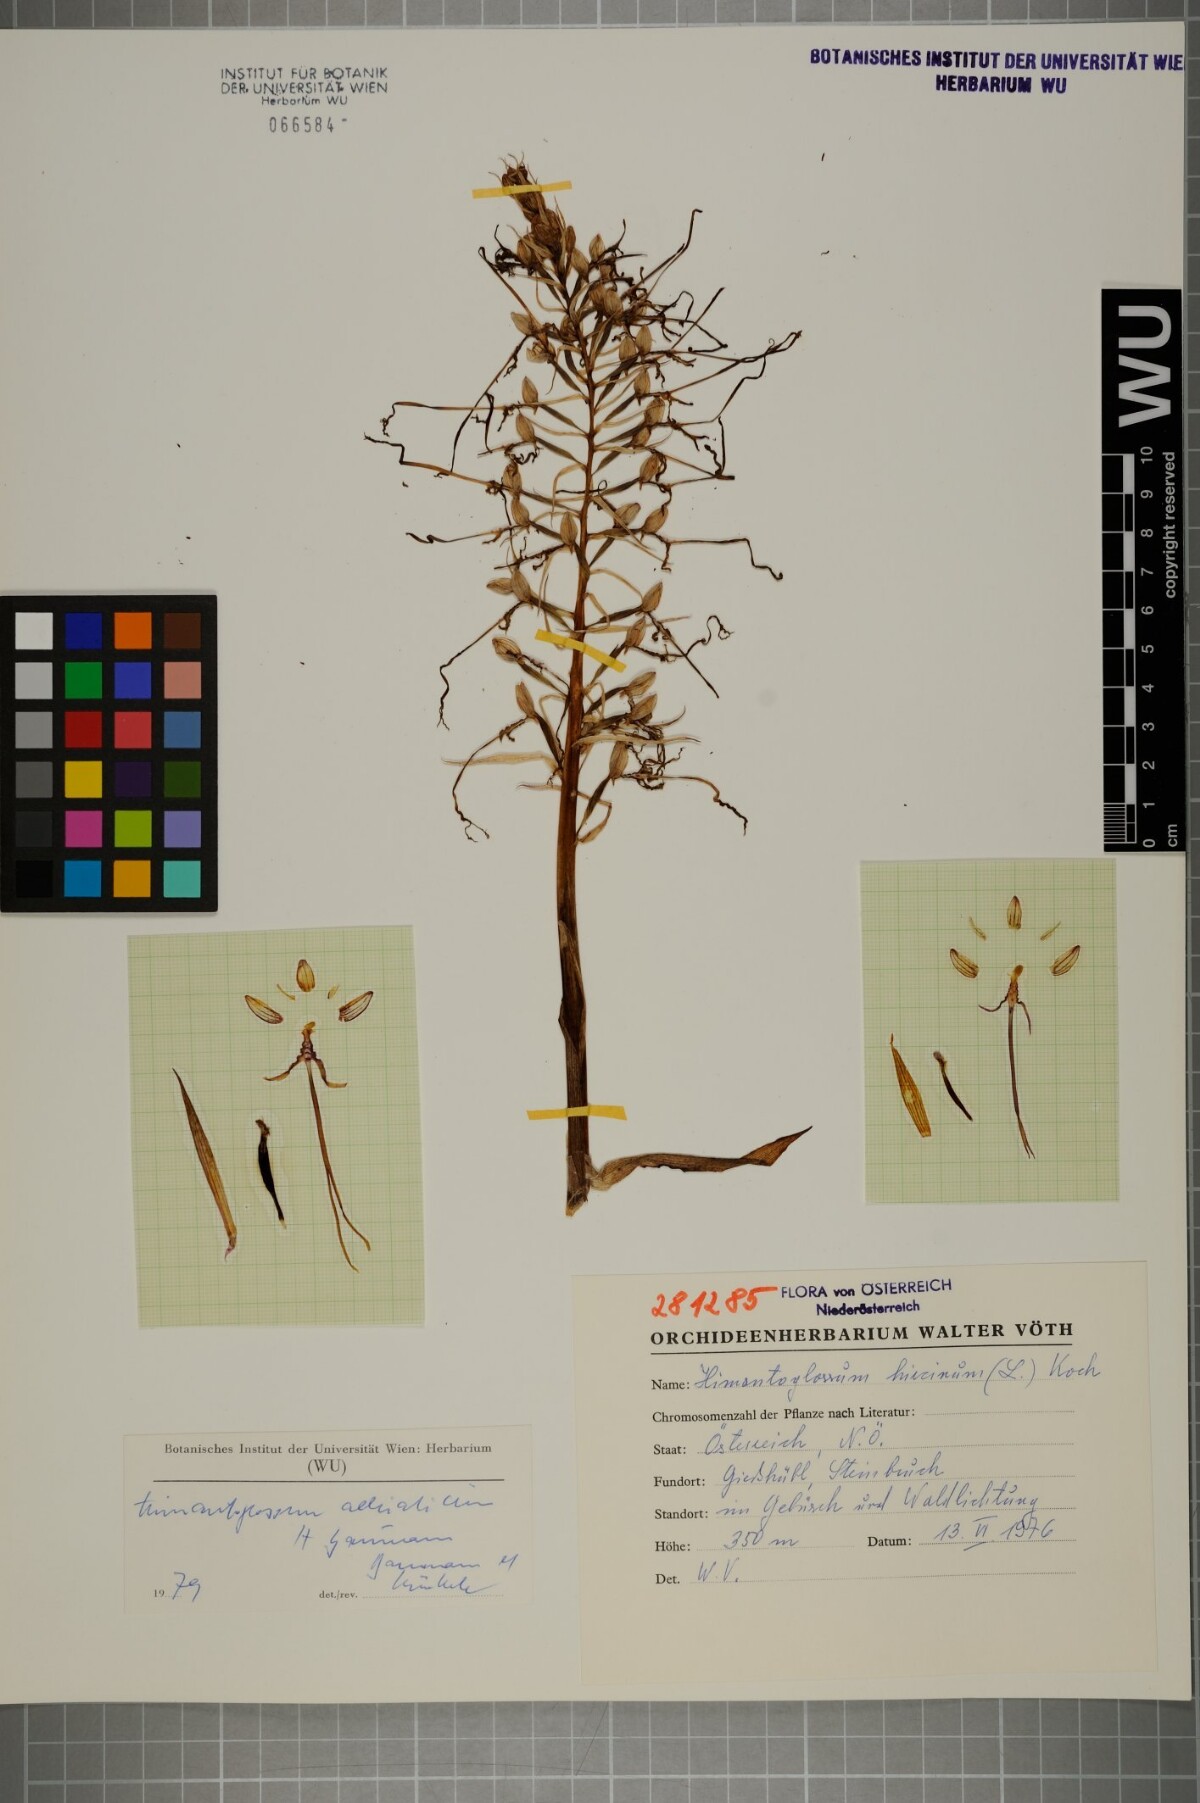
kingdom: Plantae
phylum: Tracheophyta
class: Liliopsida
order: Asparagales
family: Orchidaceae
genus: Himantoglossum
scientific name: Himantoglossum adriaticum
